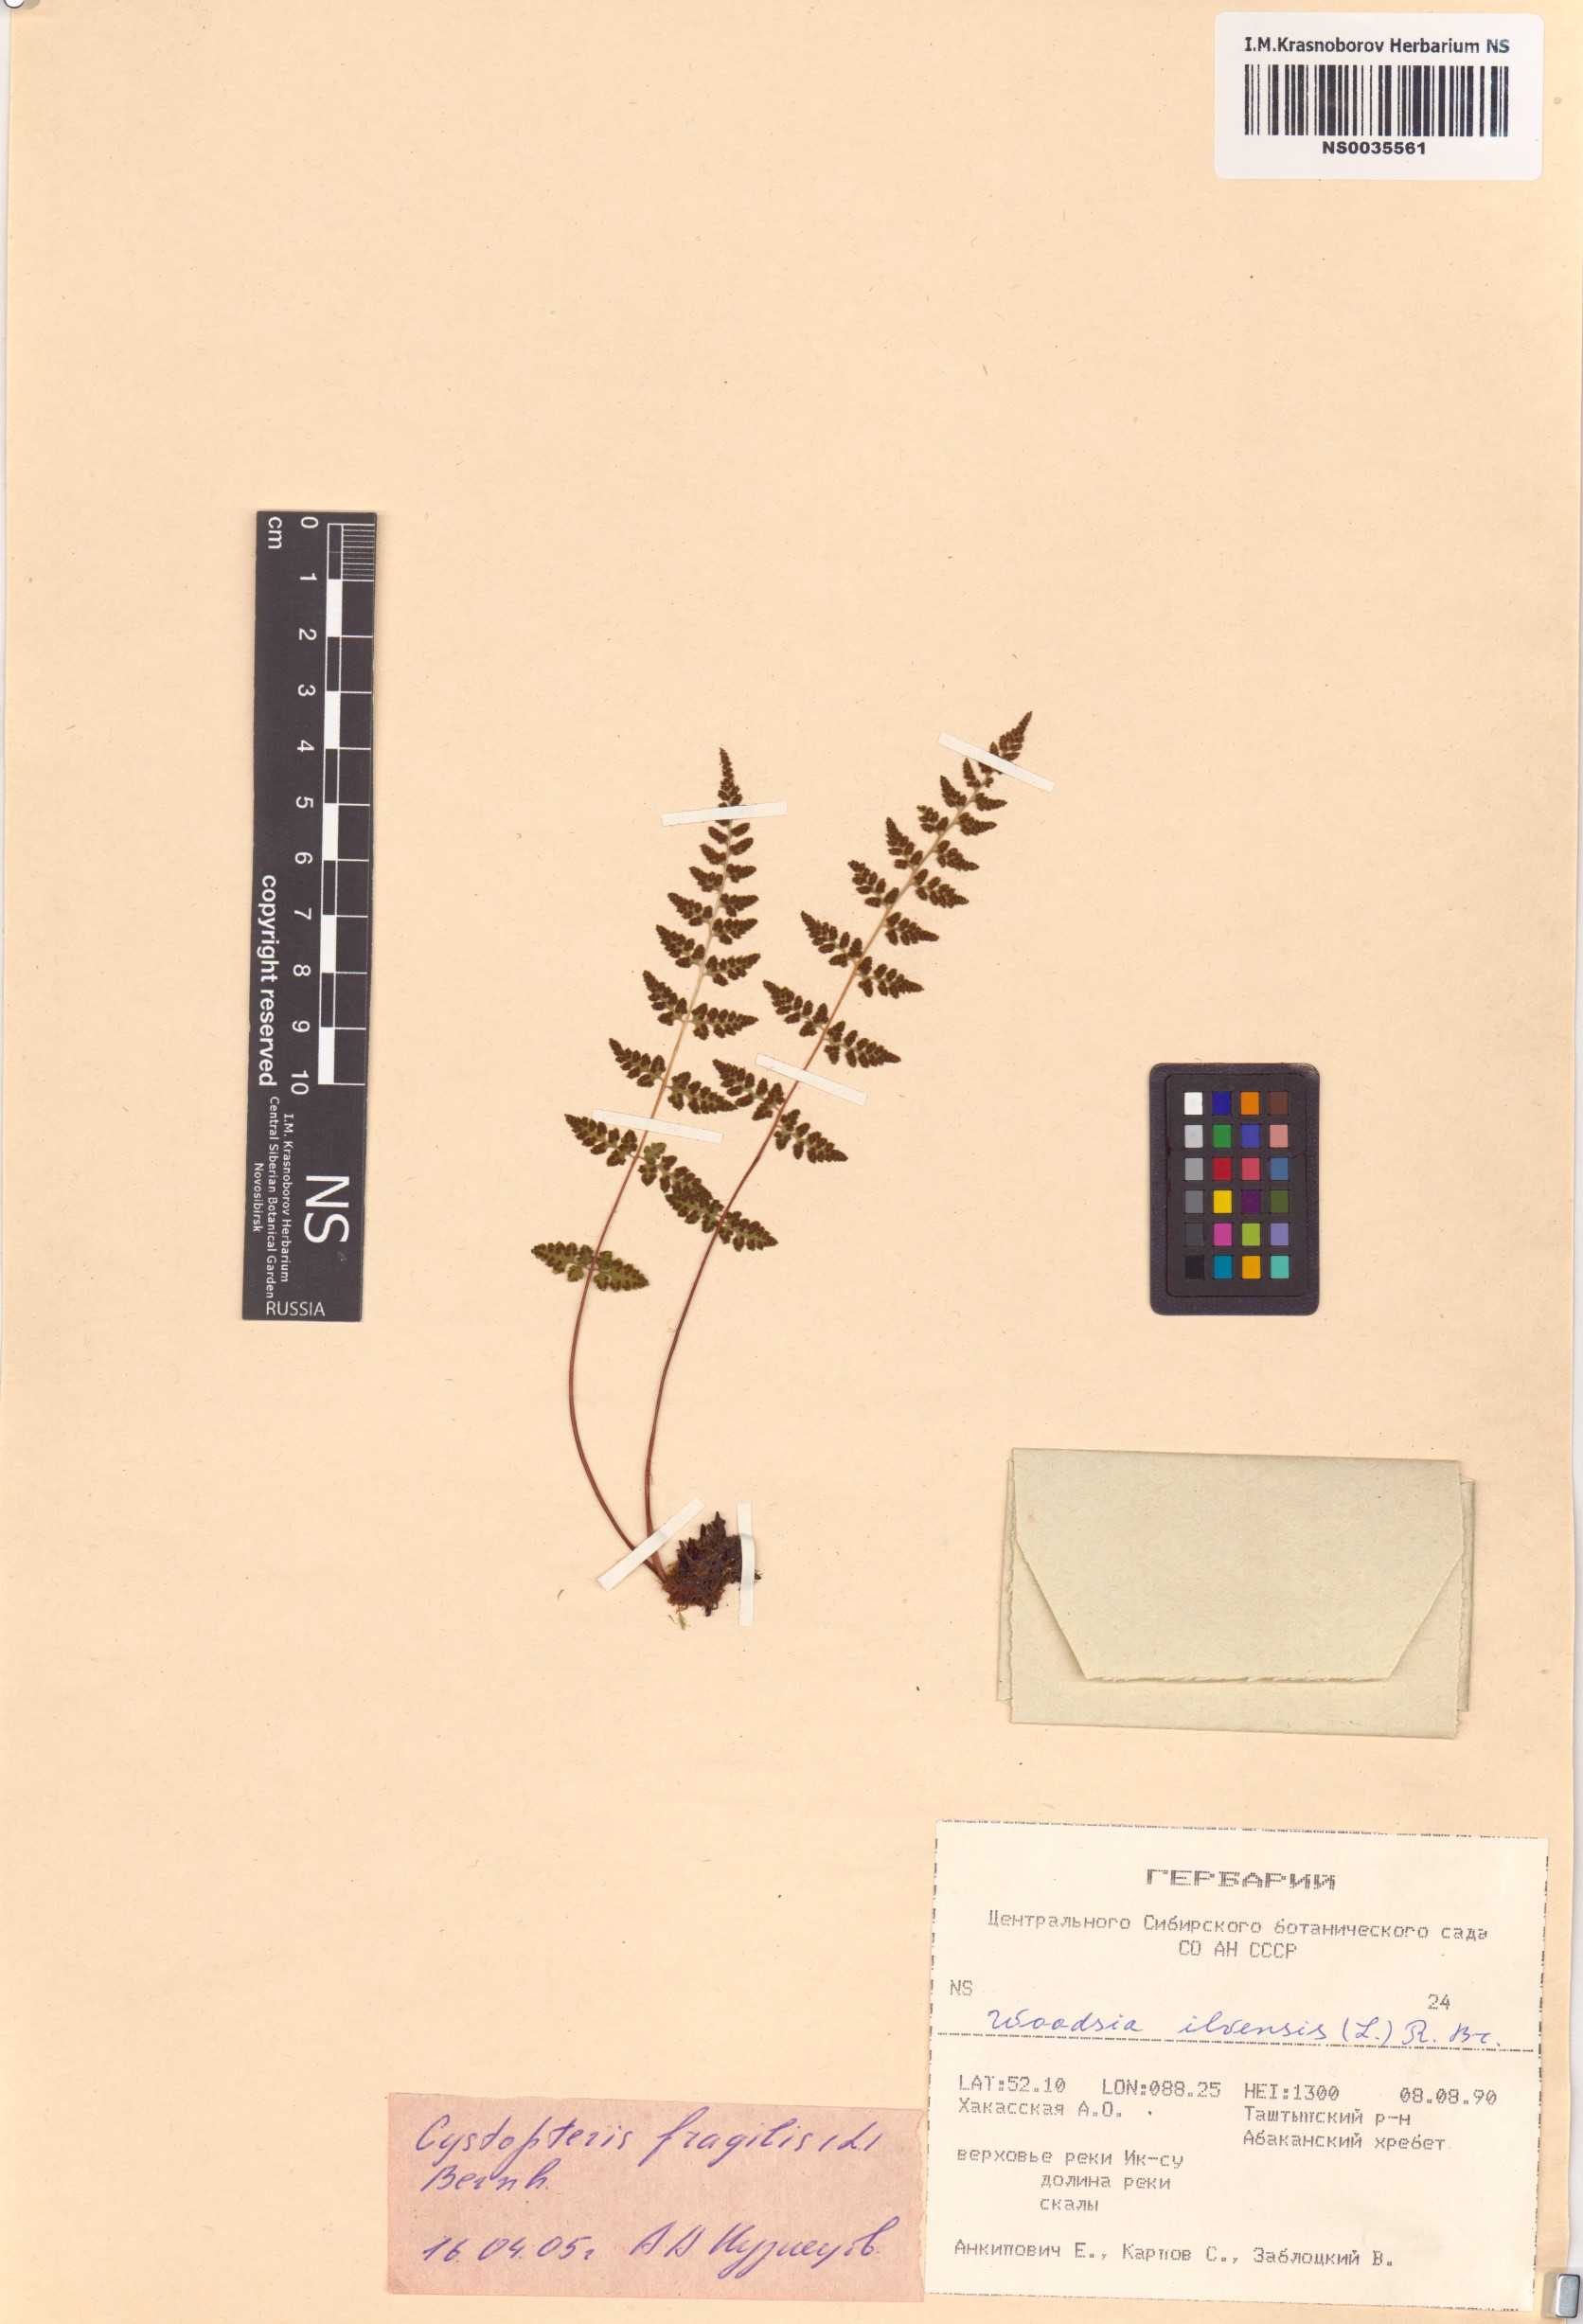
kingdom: Plantae
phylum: Tracheophyta
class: Polypodiopsida
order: Polypodiales
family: Cystopteridaceae
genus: Cystopteris
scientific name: Cystopteris fragilis
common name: Brittle bladder fern
